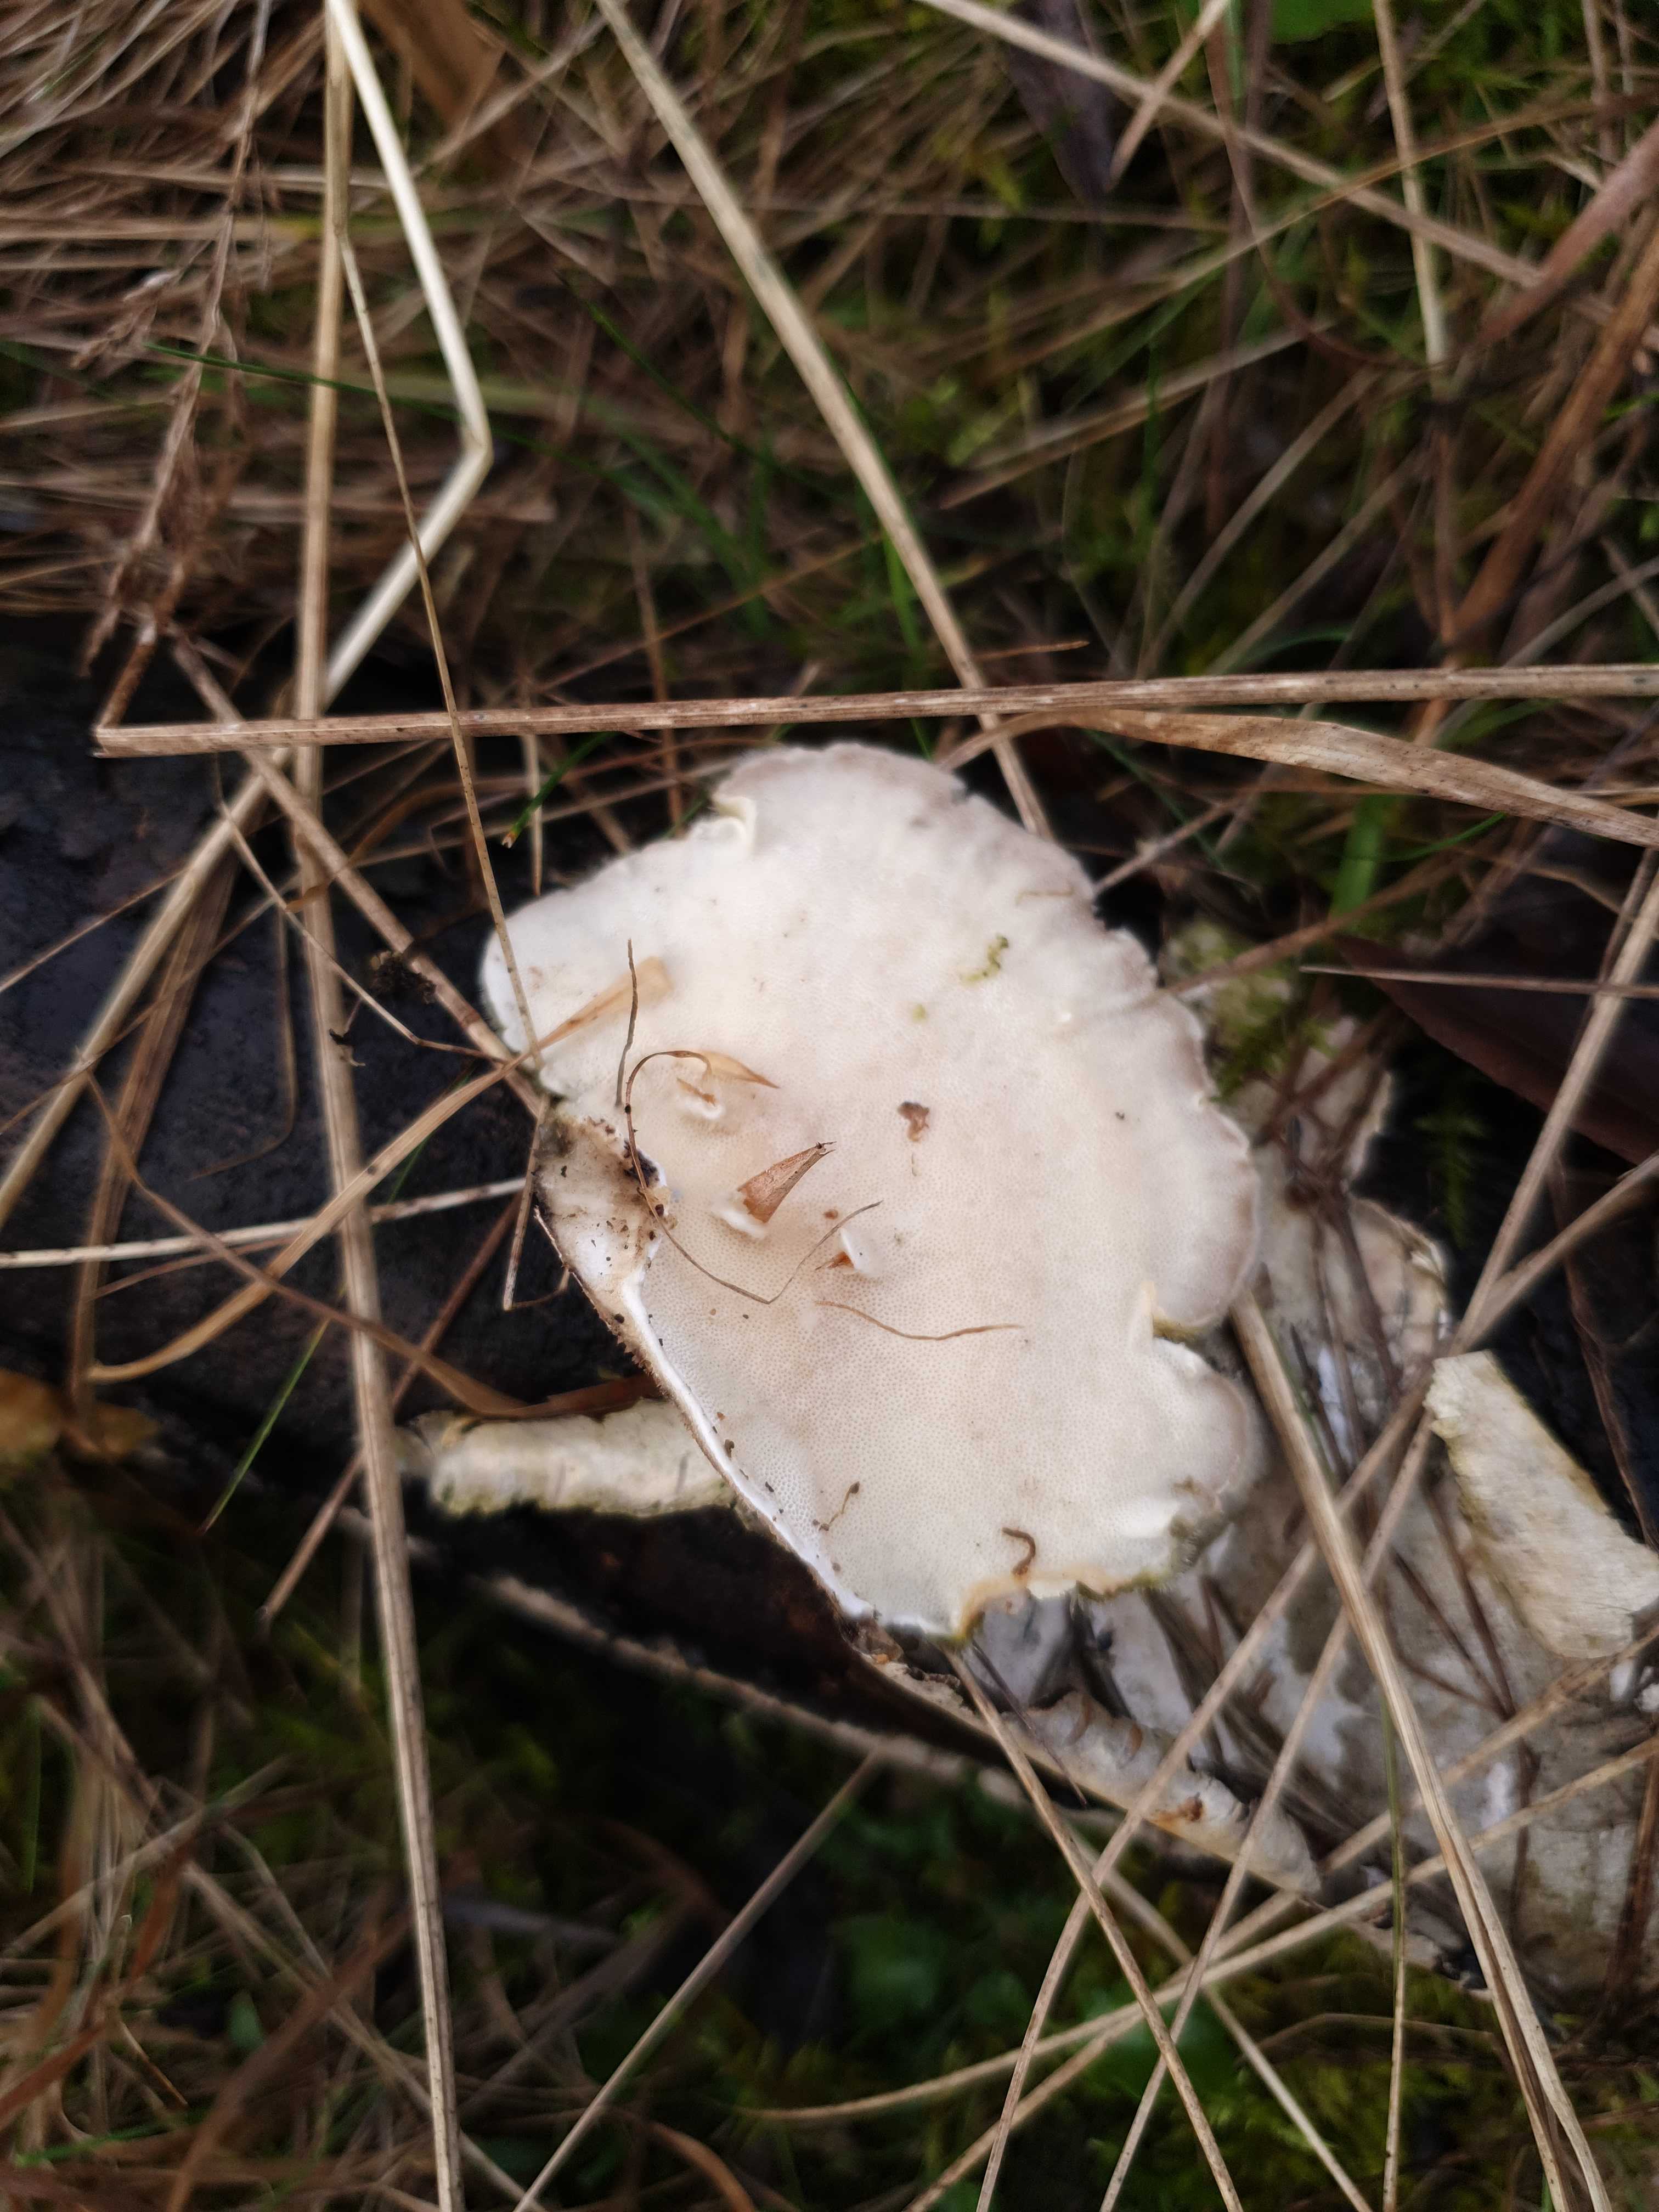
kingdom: Fungi
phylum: Basidiomycota
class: Agaricomycetes
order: Polyporales
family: Polyporaceae
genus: Trametes
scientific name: Trametes hirsuta
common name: håret læderporesvamp
